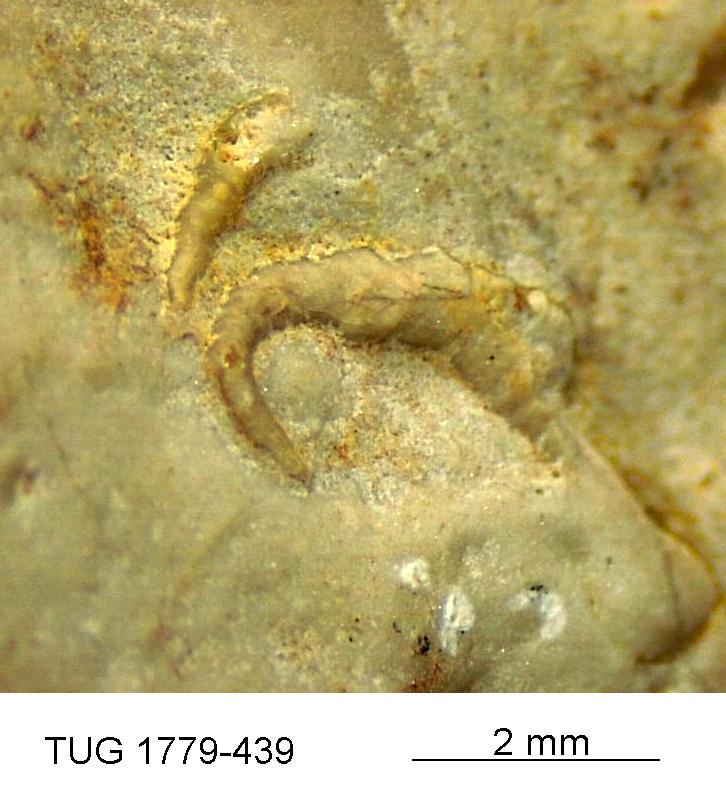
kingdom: Animalia
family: Cornulitidae
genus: Cornulites
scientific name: Cornulites
